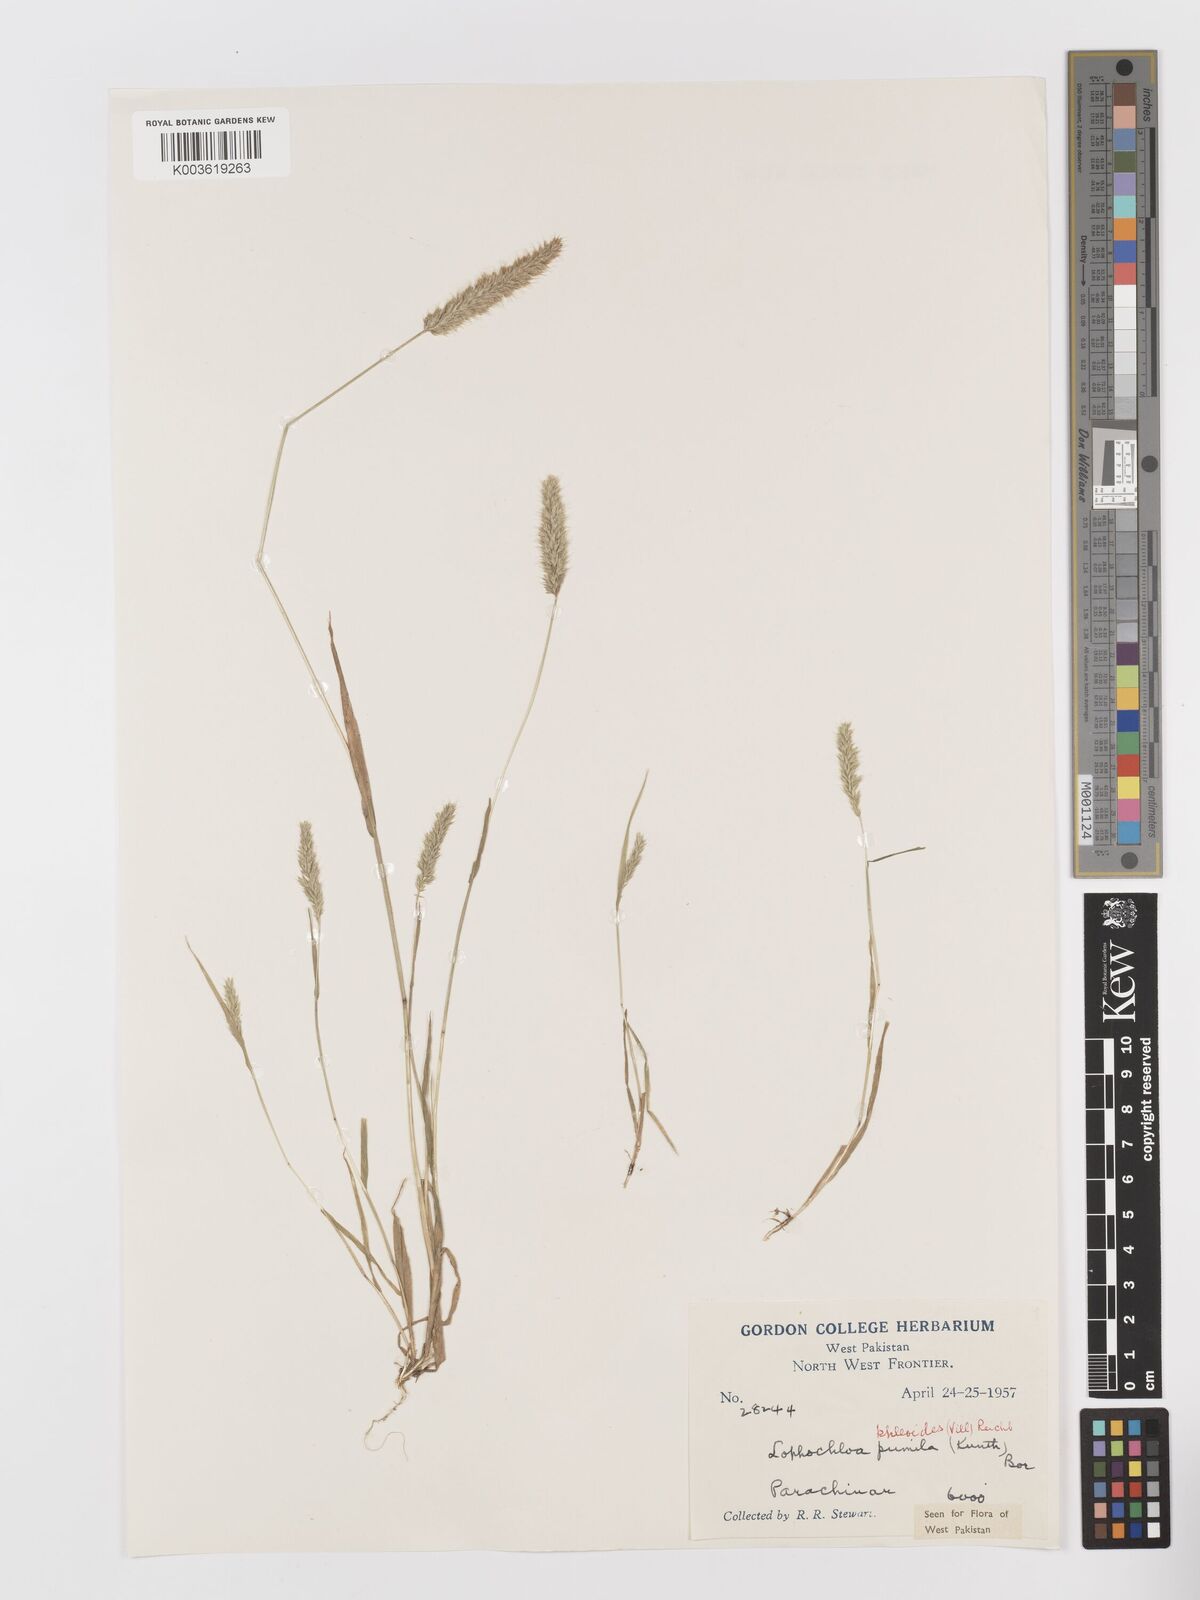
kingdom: Plantae
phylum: Tracheophyta
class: Liliopsida
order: Poales
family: Poaceae
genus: Rostraria
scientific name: Rostraria cristata
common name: Mediterranean hair-grass
